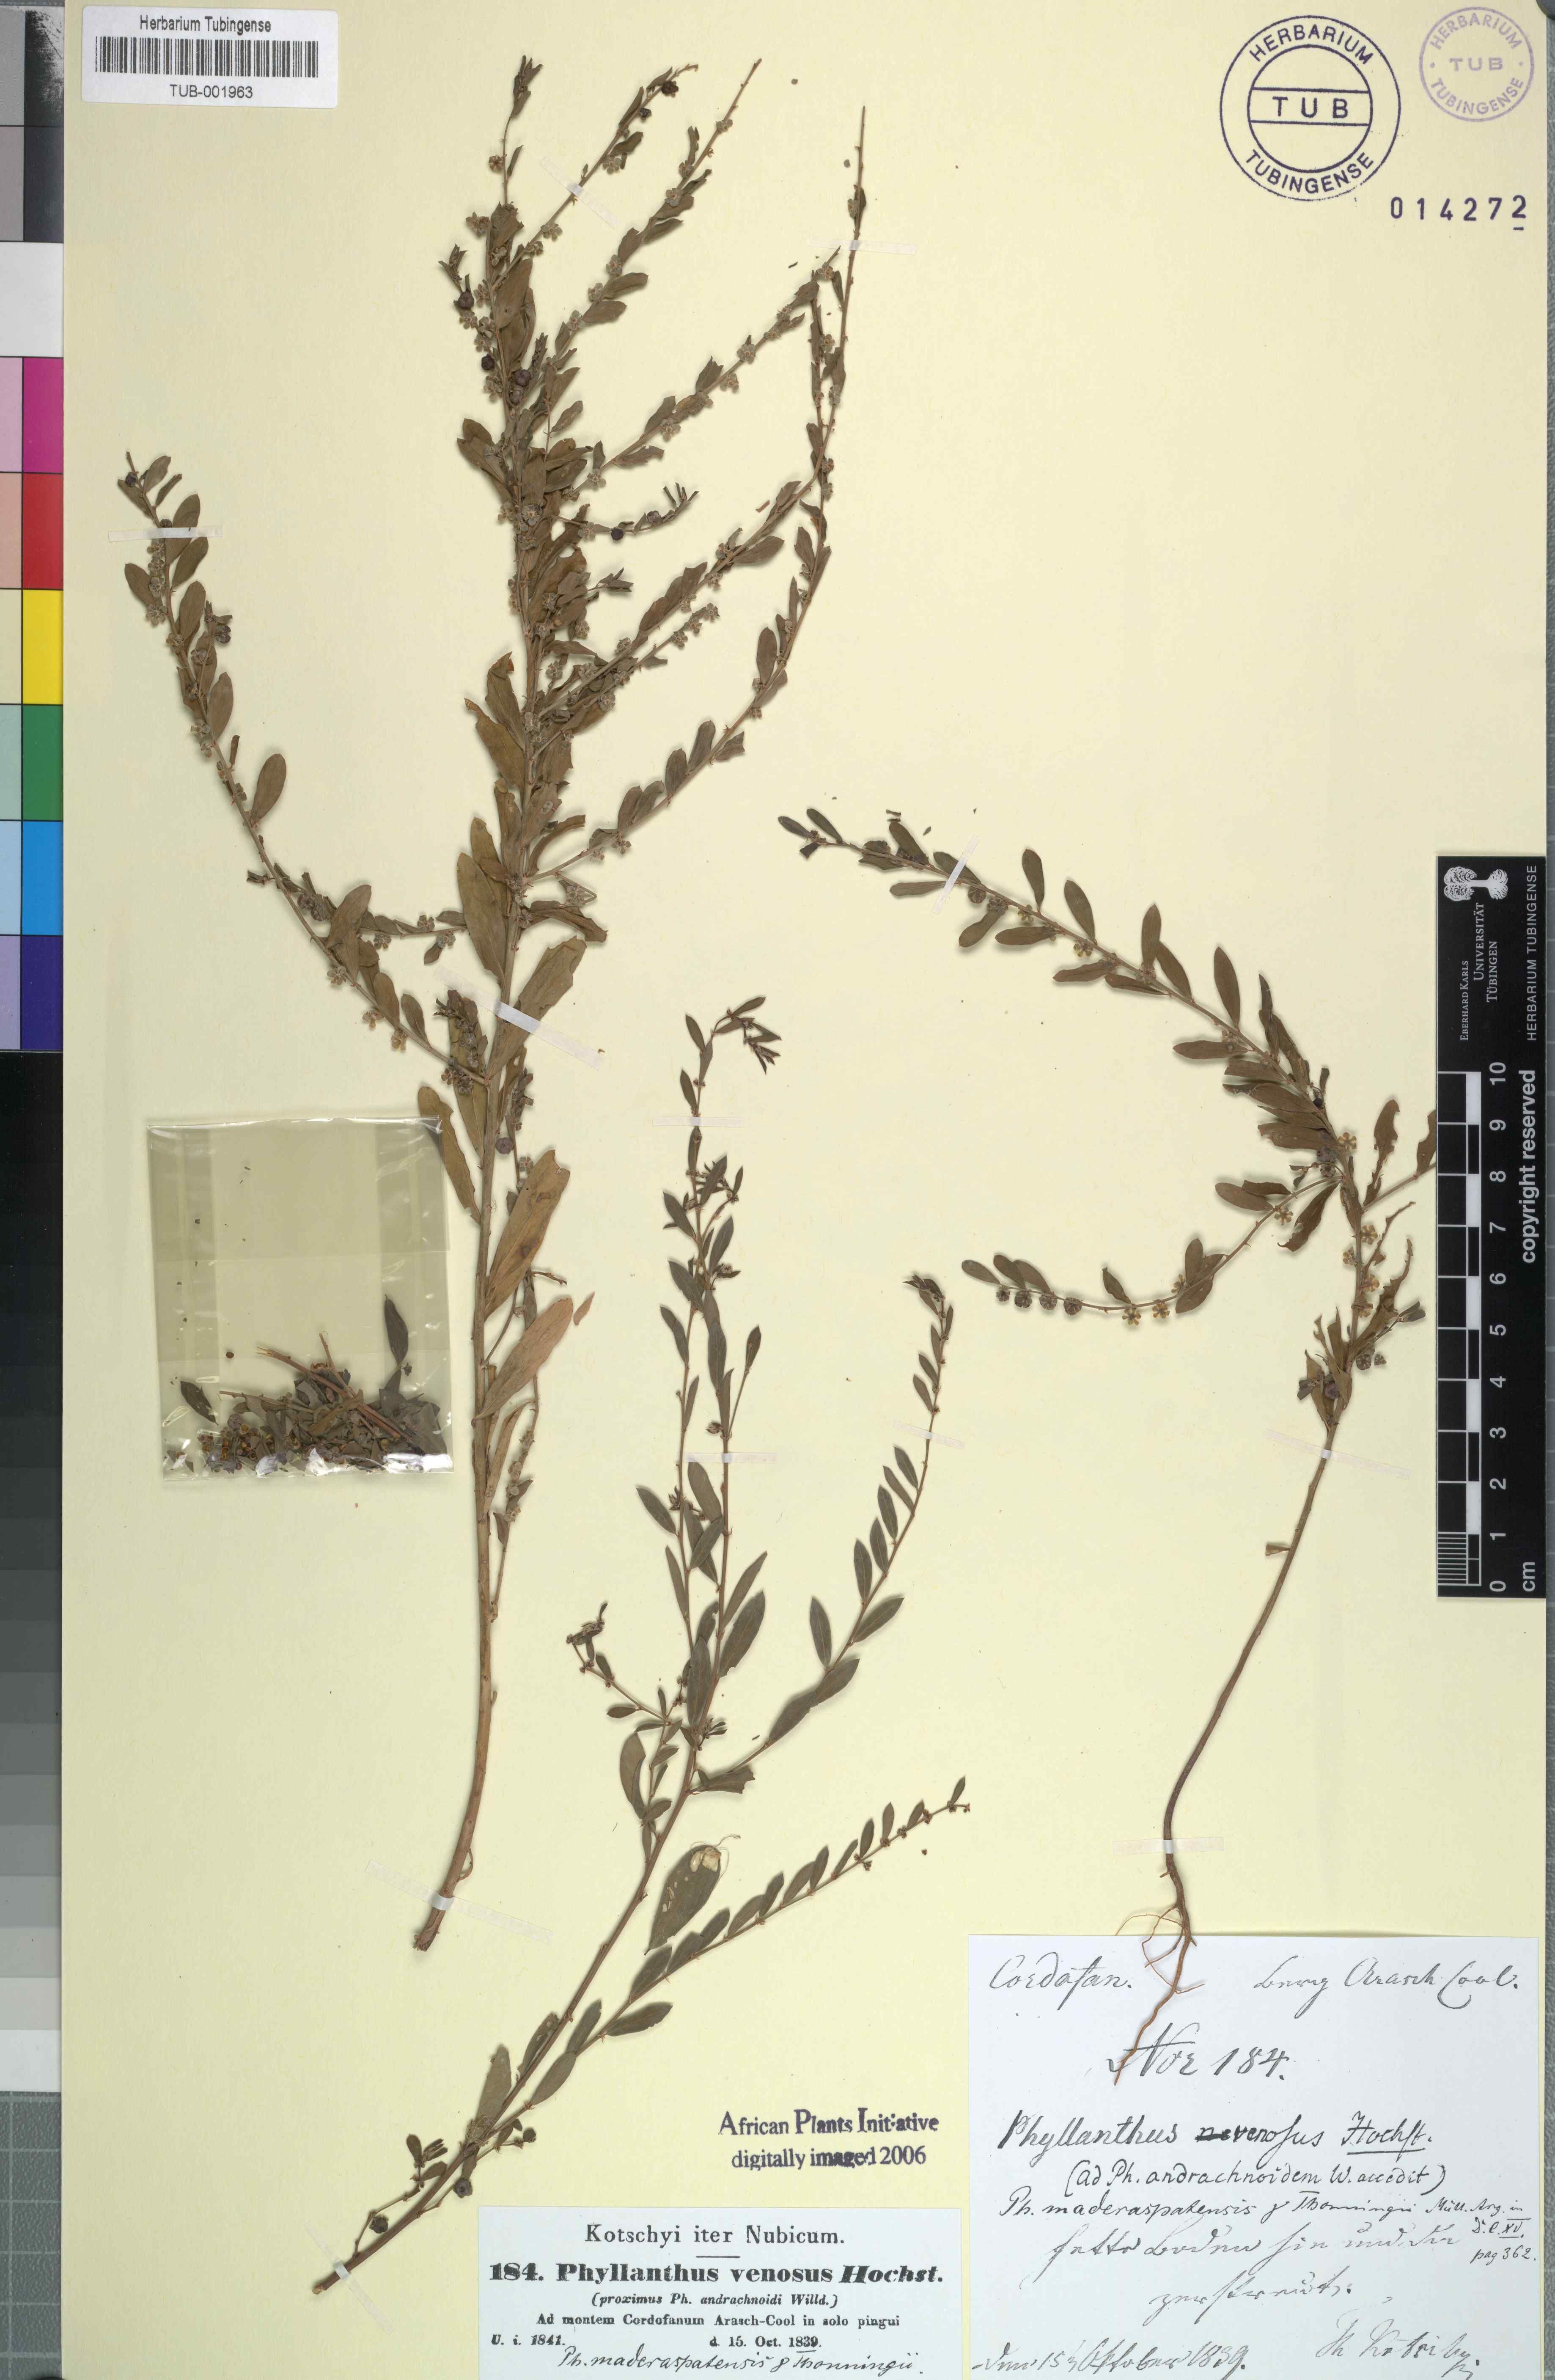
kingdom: Plantae
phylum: Tracheophyta
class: Magnoliopsida
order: Malpighiales
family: Phyllanthaceae
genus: Phyllanthus
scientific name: Phyllanthus maderaspatensis
